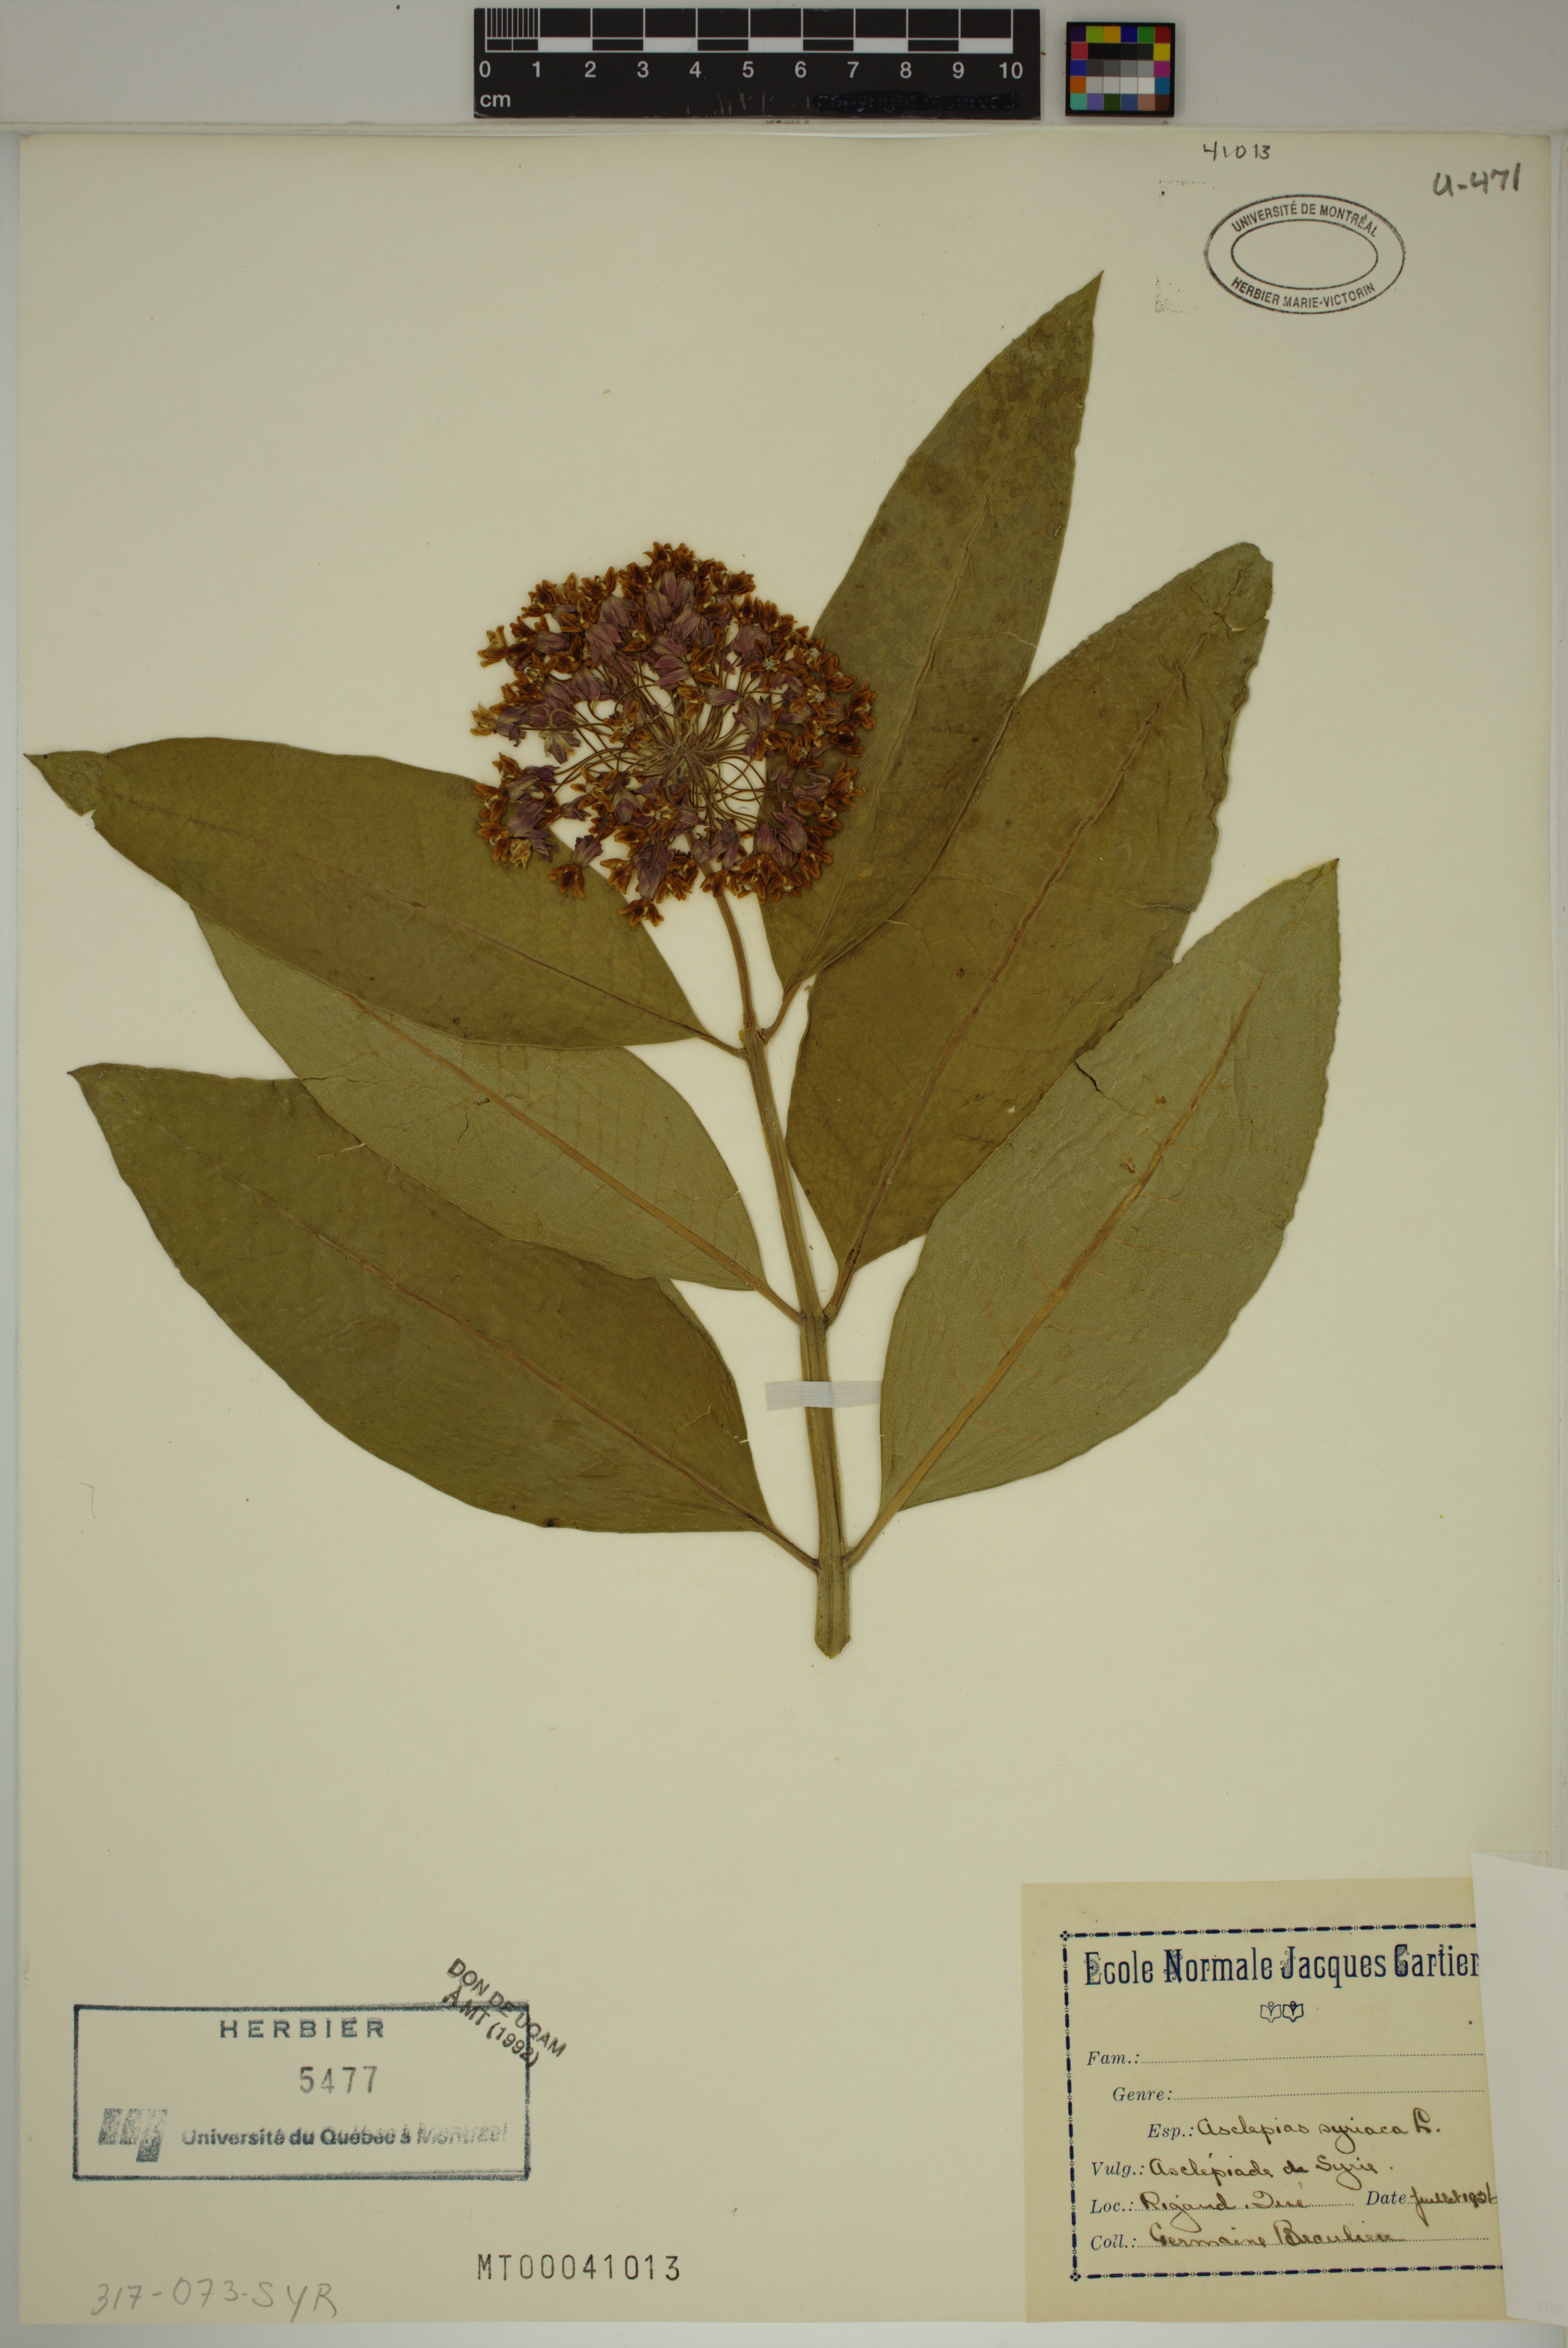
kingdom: Plantae
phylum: Tracheophyta
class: Magnoliopsida
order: Gentianales
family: Apocynaceae
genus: Asclepias
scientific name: Asclepias syriaca
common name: Common milkweed
